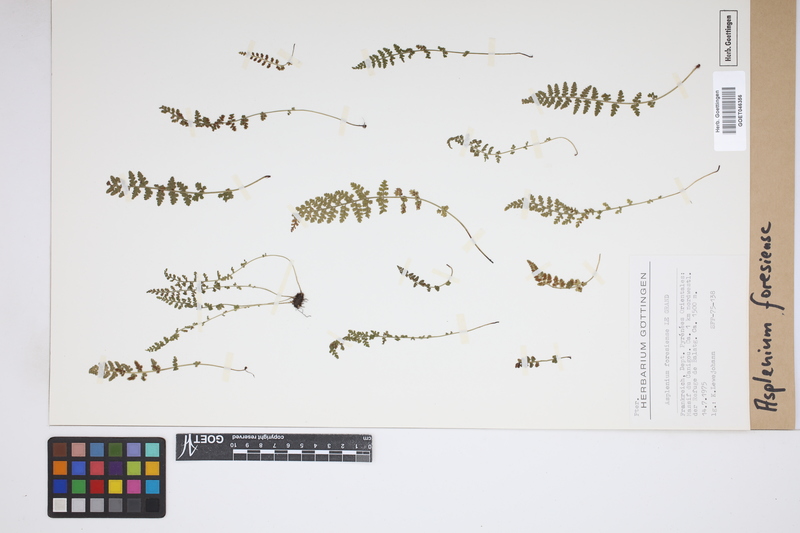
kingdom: Plantae
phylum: Tracheophyta
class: Polypodiopsida
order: Polypodiales
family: Aspleniaceae
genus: Asplenium
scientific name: Asplenium foresiense
